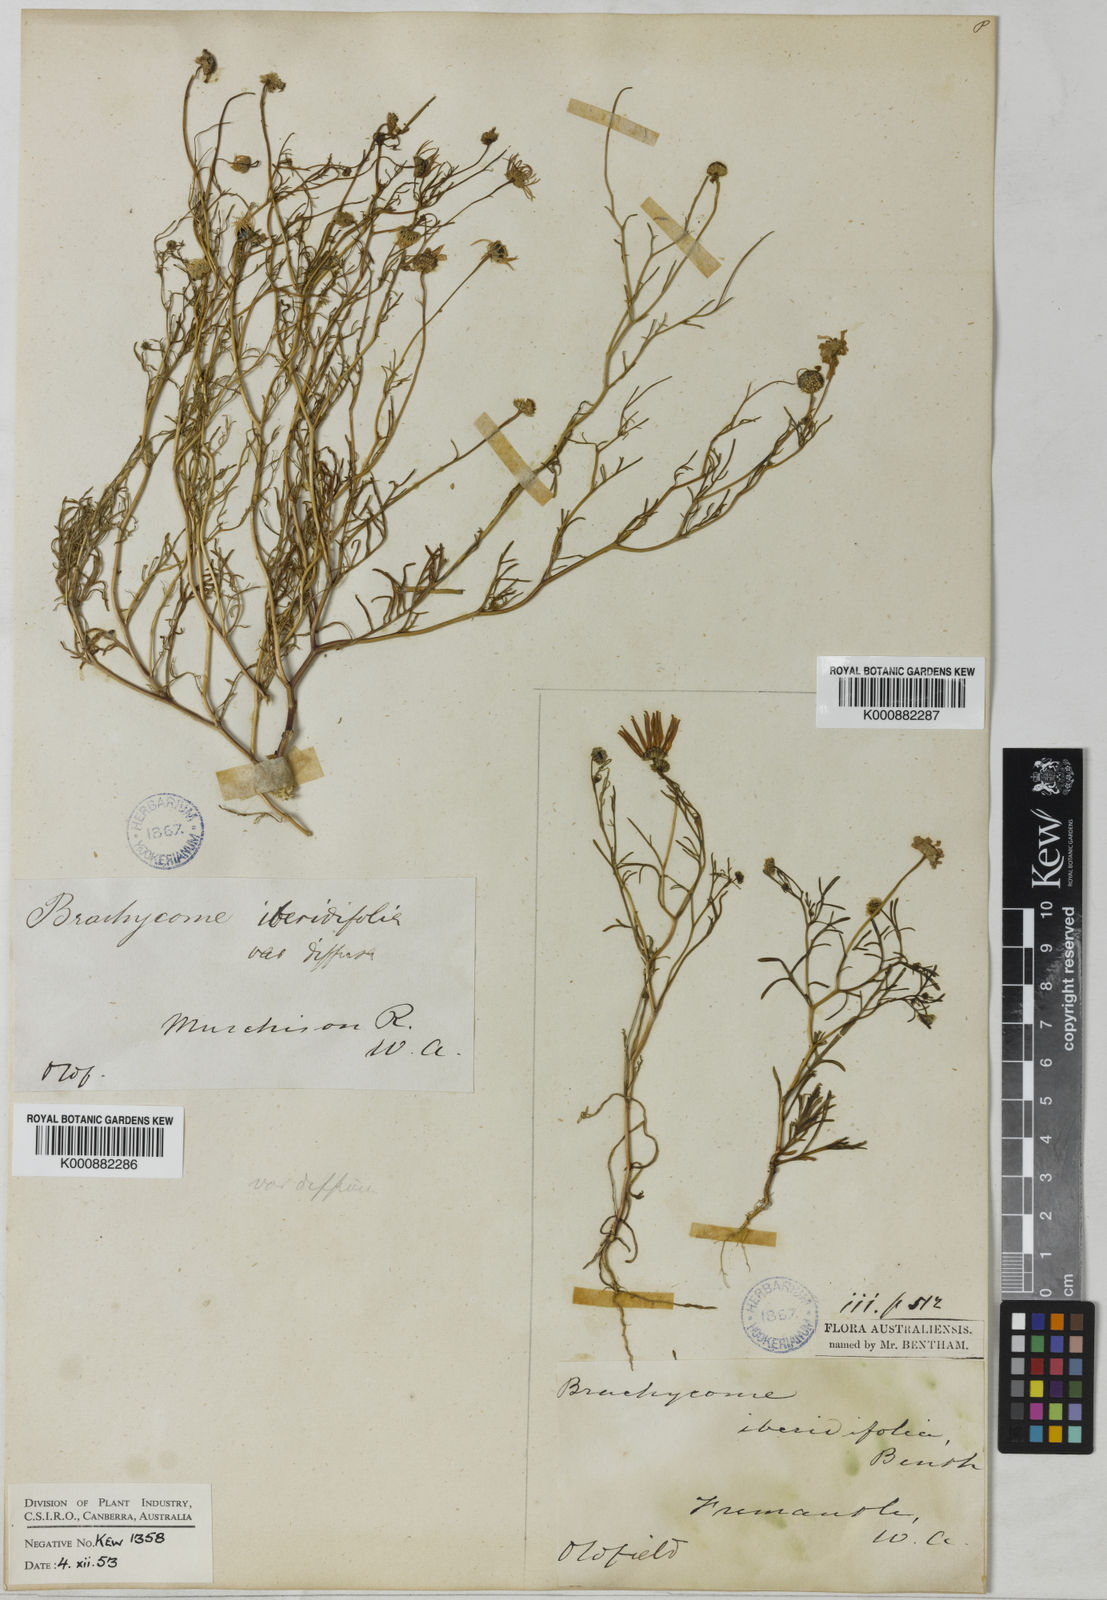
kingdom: Plantae
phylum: Tracheophyta
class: Magnoliopsida
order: Asterales
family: Asteraceae
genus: Brachyscome
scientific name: Brachyscome iberidifolia
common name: Swan river daisy
